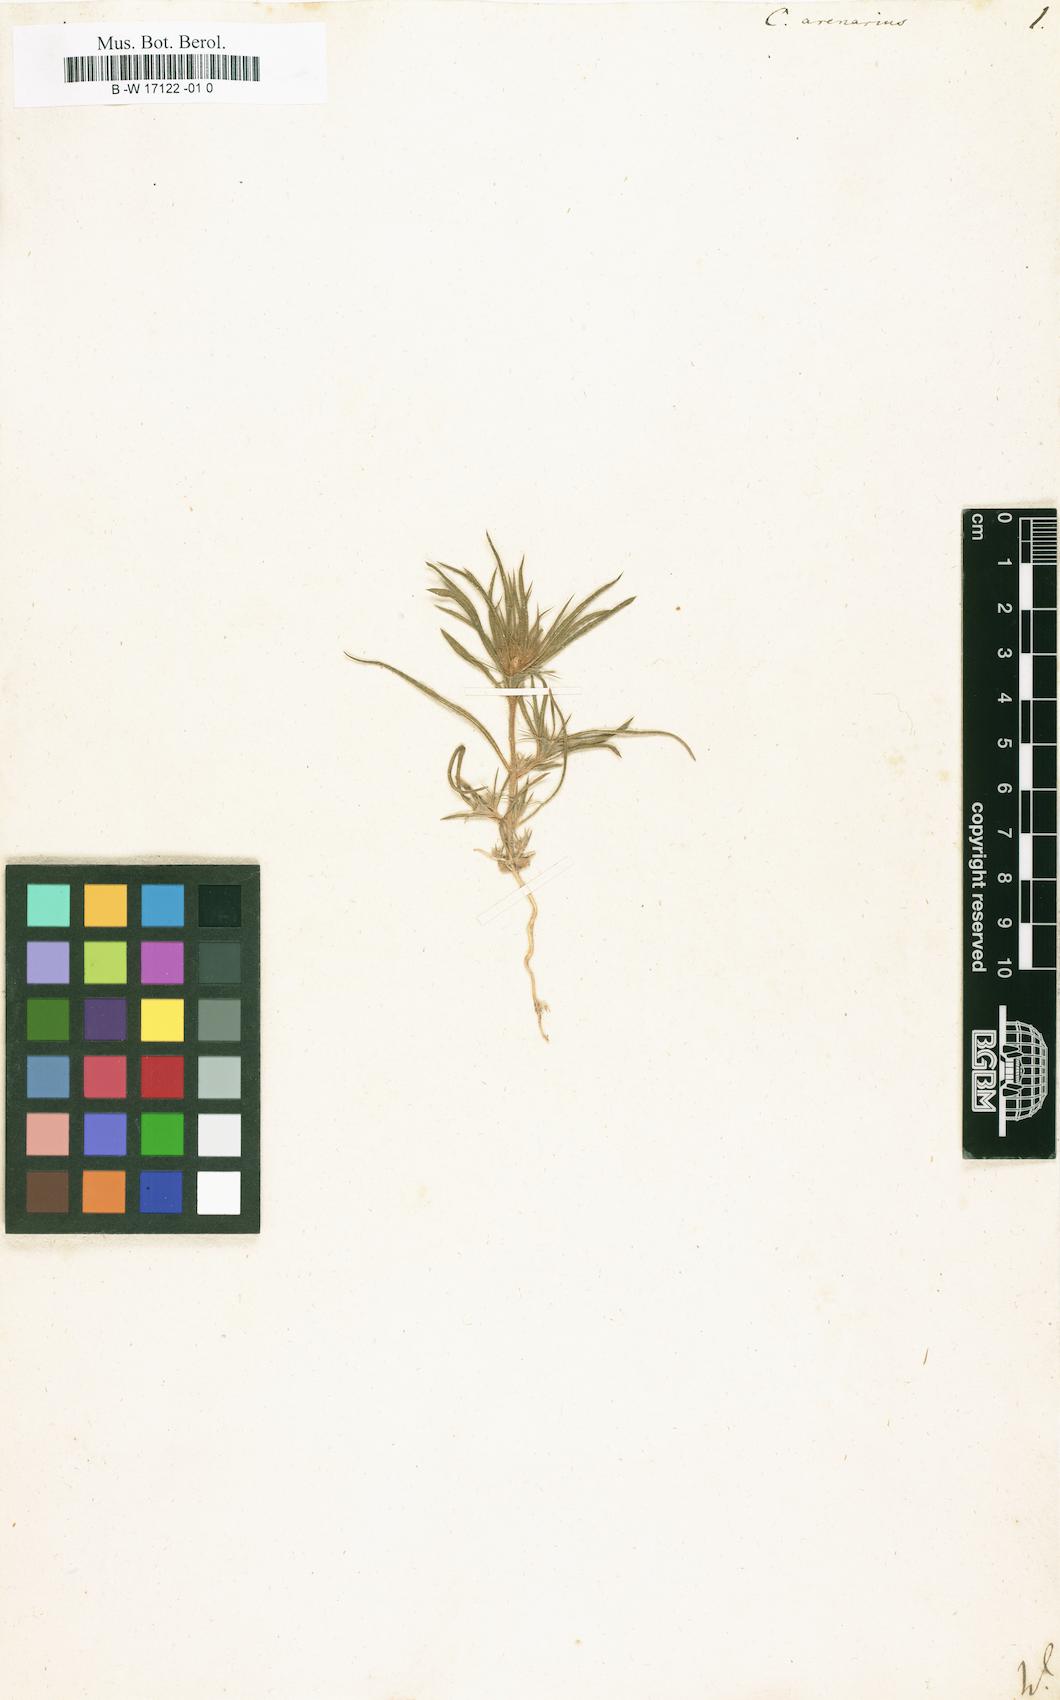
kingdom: Plantae
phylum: Tracheophyta
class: Magnoliopsida
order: Caryophyllales
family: Amaranthaceae
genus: Ceratocarpus
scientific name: Ceratocarpus arenarius
